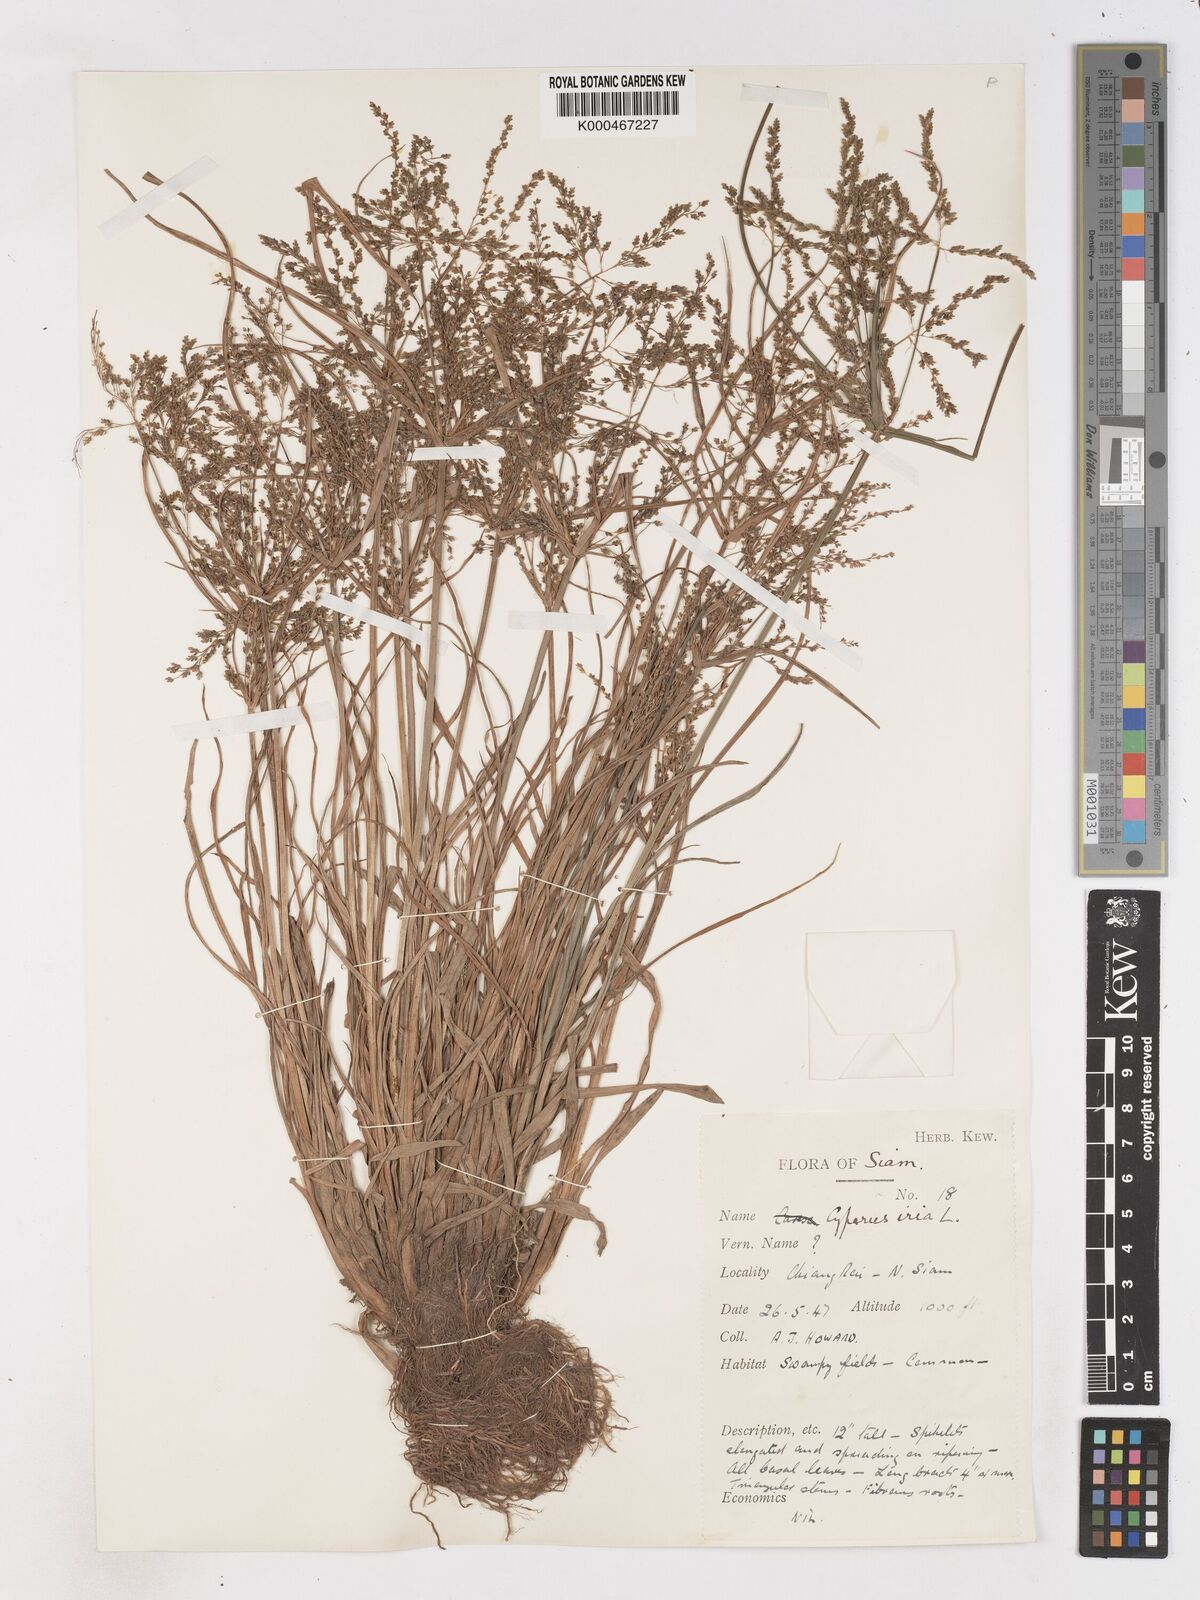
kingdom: Plantae
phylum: Tracheophyta
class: Liliopsida
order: Poales
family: Cyperaceae
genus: Cyperus
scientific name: Cyperus iria
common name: Ricefield flatsedge
